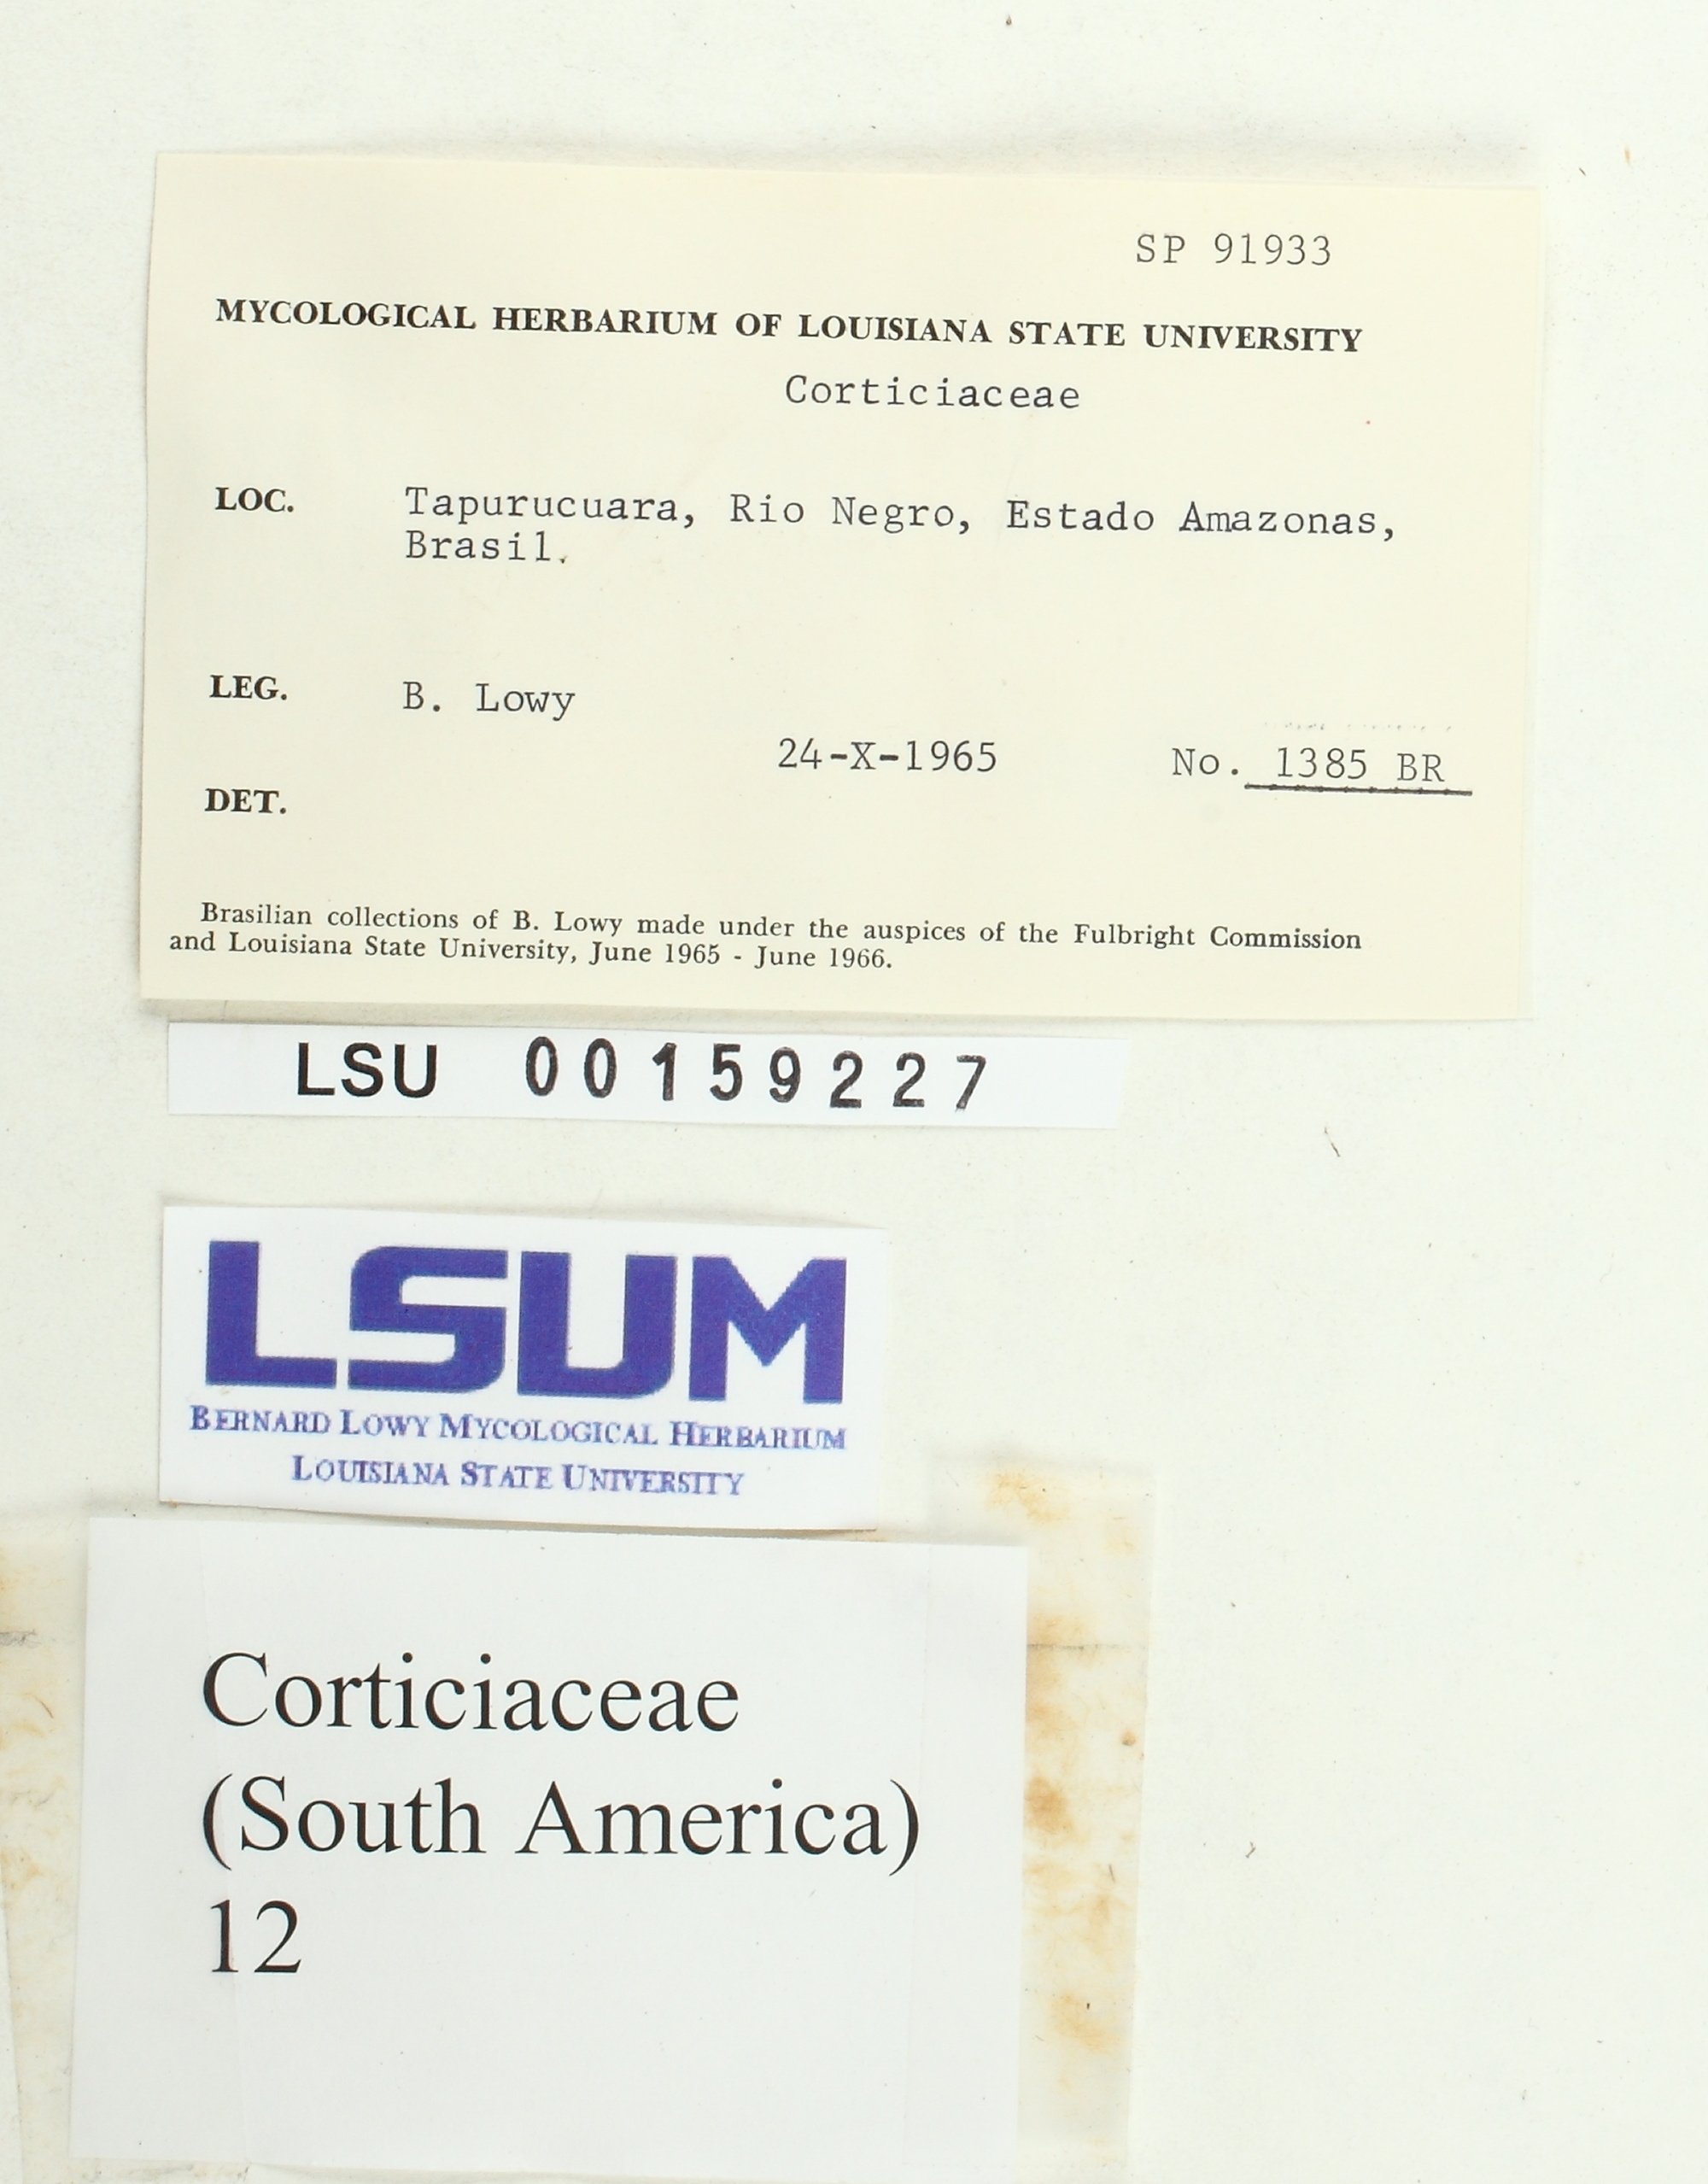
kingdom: Fungi
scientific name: Fungi
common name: Fungi
